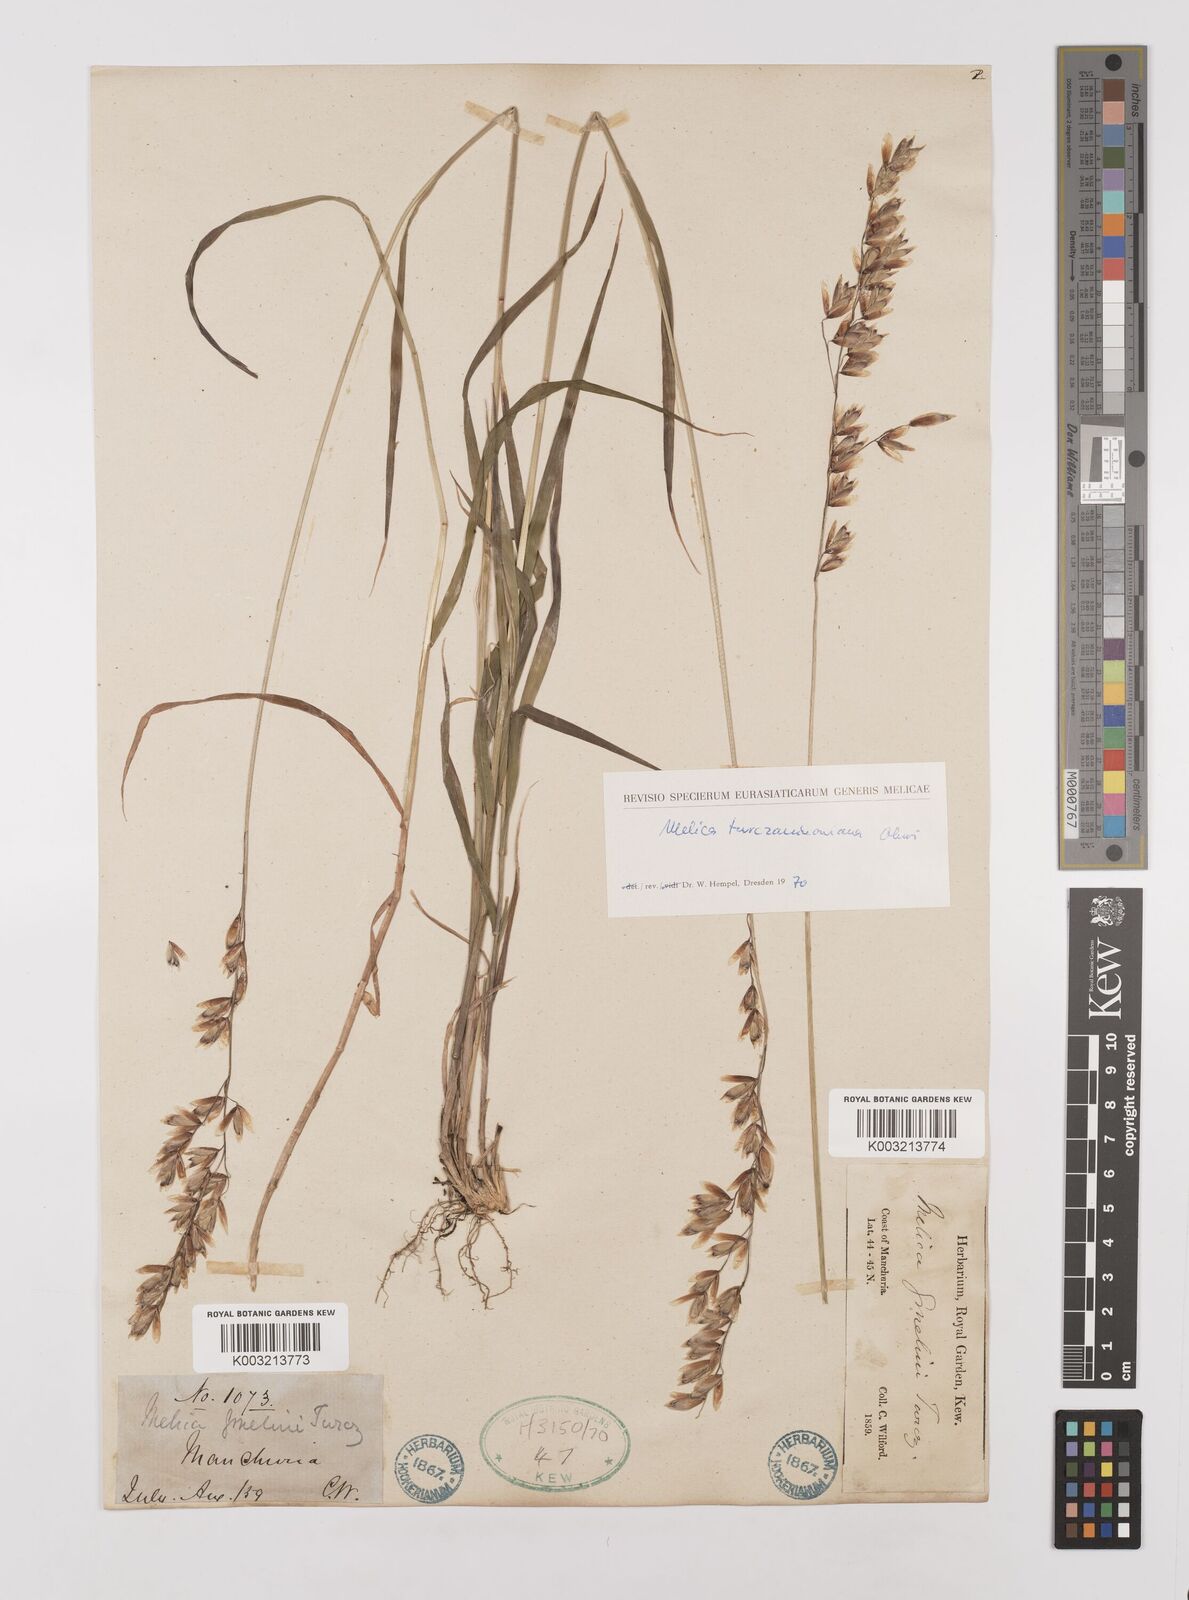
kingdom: Plantae
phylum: Tracheophyta
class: Liliopsida
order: Poales
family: Poaceae
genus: Melica
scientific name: Melica turczaninowiana
